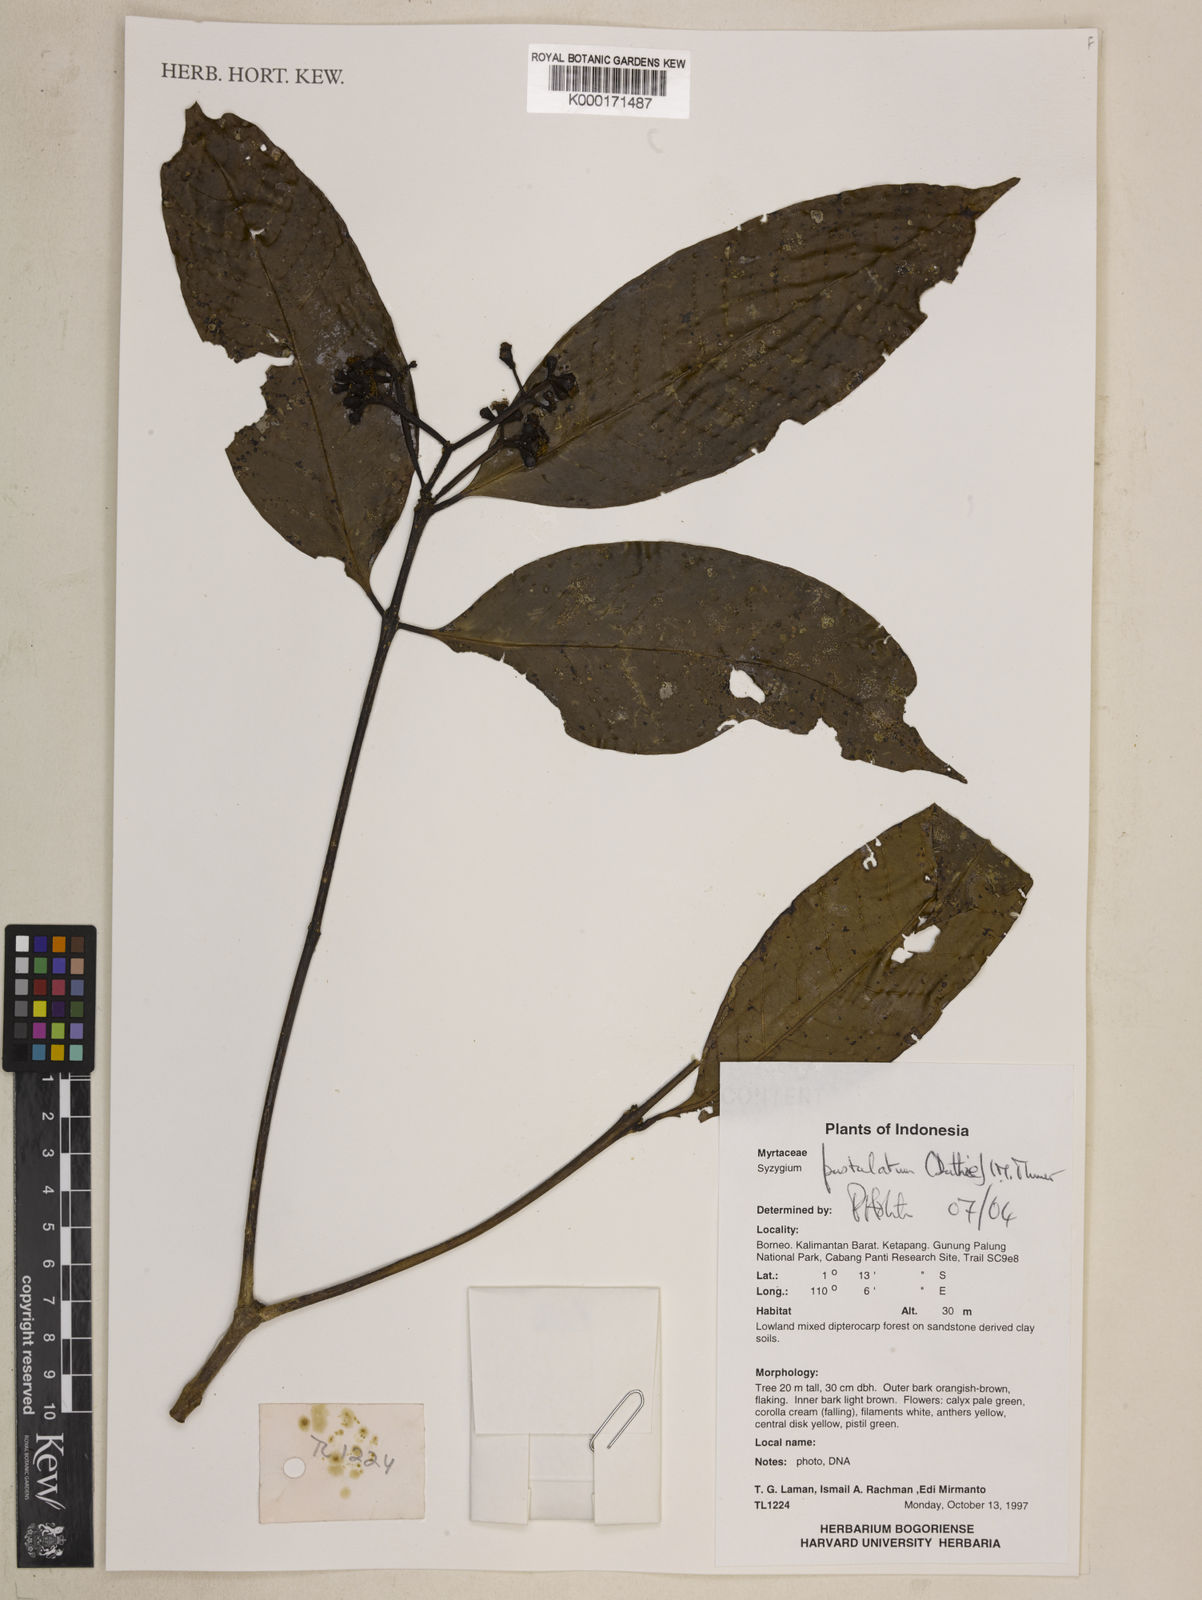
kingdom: Plantae
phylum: Tracheophyta
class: Magnoliopsida
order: Myrtales
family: Myrtaceae
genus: Syzygium
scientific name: Syzygium
